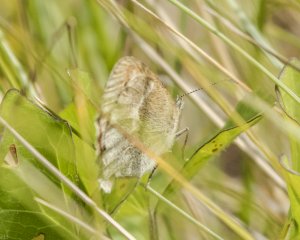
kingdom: Animalia
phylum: Arthropoda
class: Insecta
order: Lepidoptera
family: Nymphalidae
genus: Coenonympha
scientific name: Coenonympha inornata
